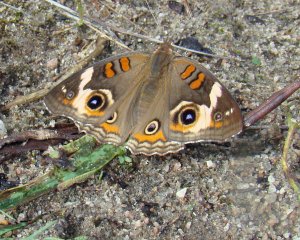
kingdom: Animalia
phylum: Arthropoda
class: Insecta
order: Lepidoptera
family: Nymphalidae
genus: Junonia
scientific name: Junonia coenia
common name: Common Buckeye
